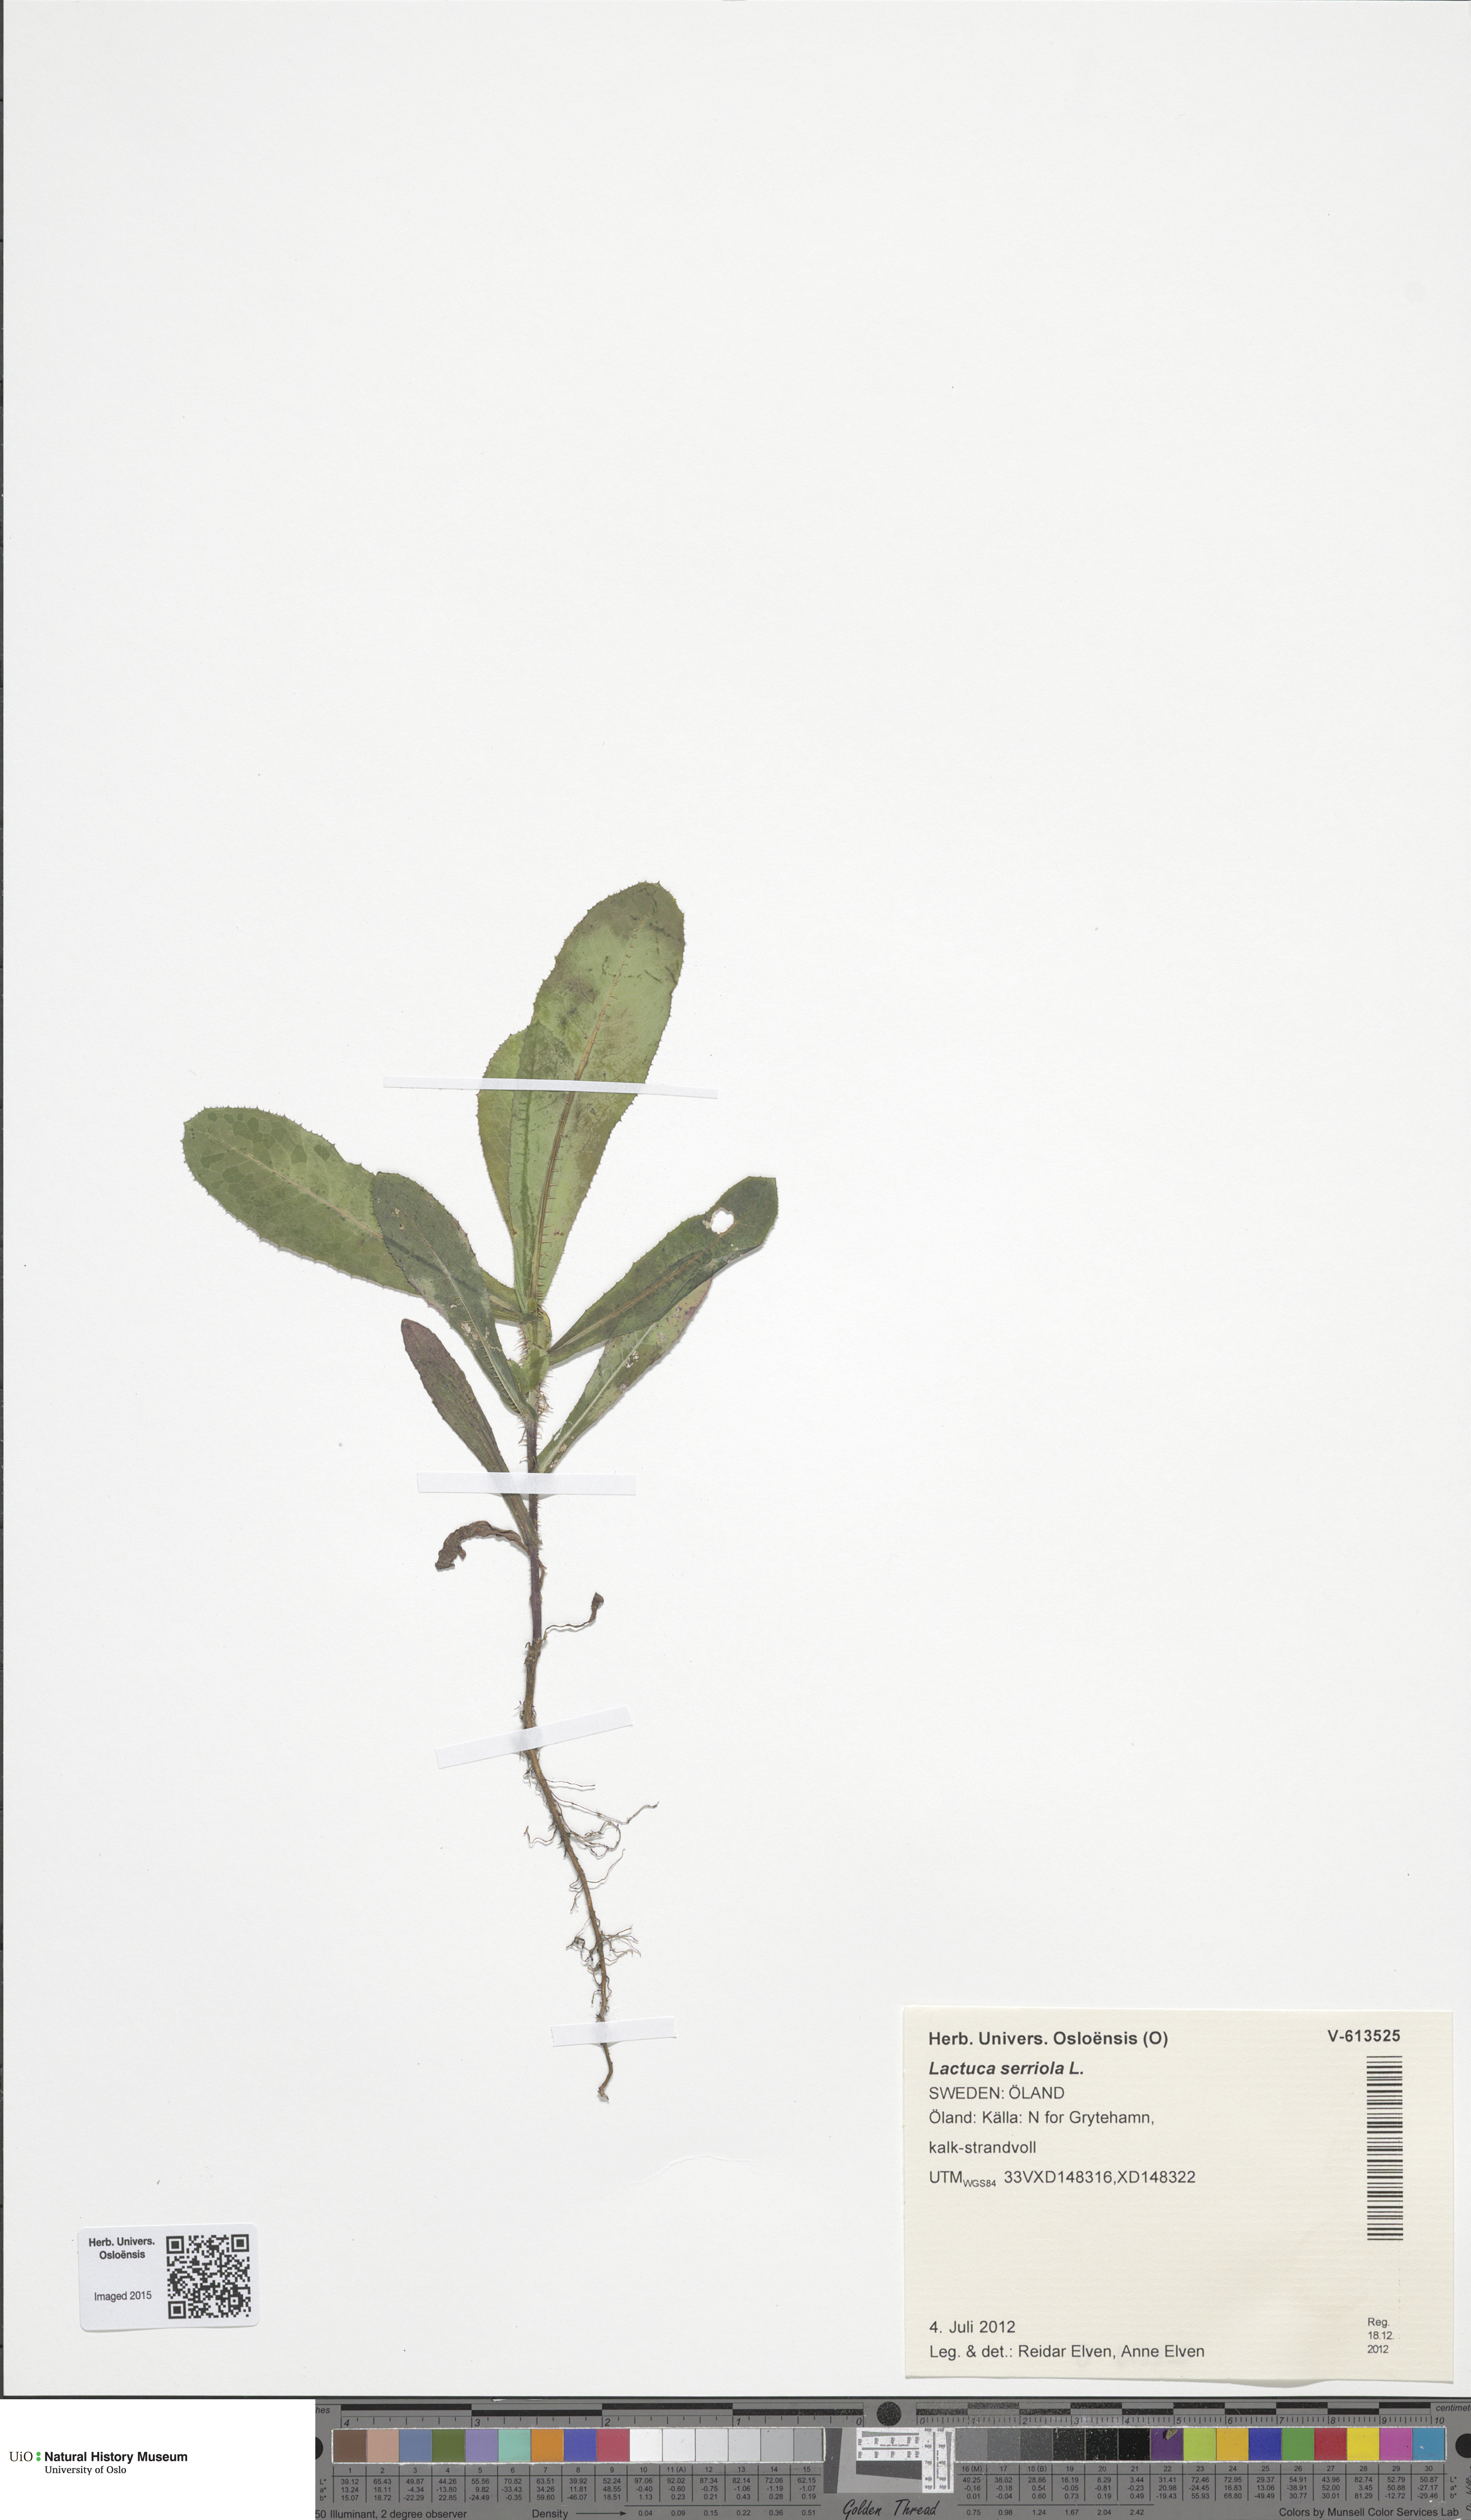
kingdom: Plantae
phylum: Tracheophyta
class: Magnoliopsida
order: Asterales
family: Asteraceae
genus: Lactuca
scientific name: Lactuca serriola
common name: Prickly lettuce
